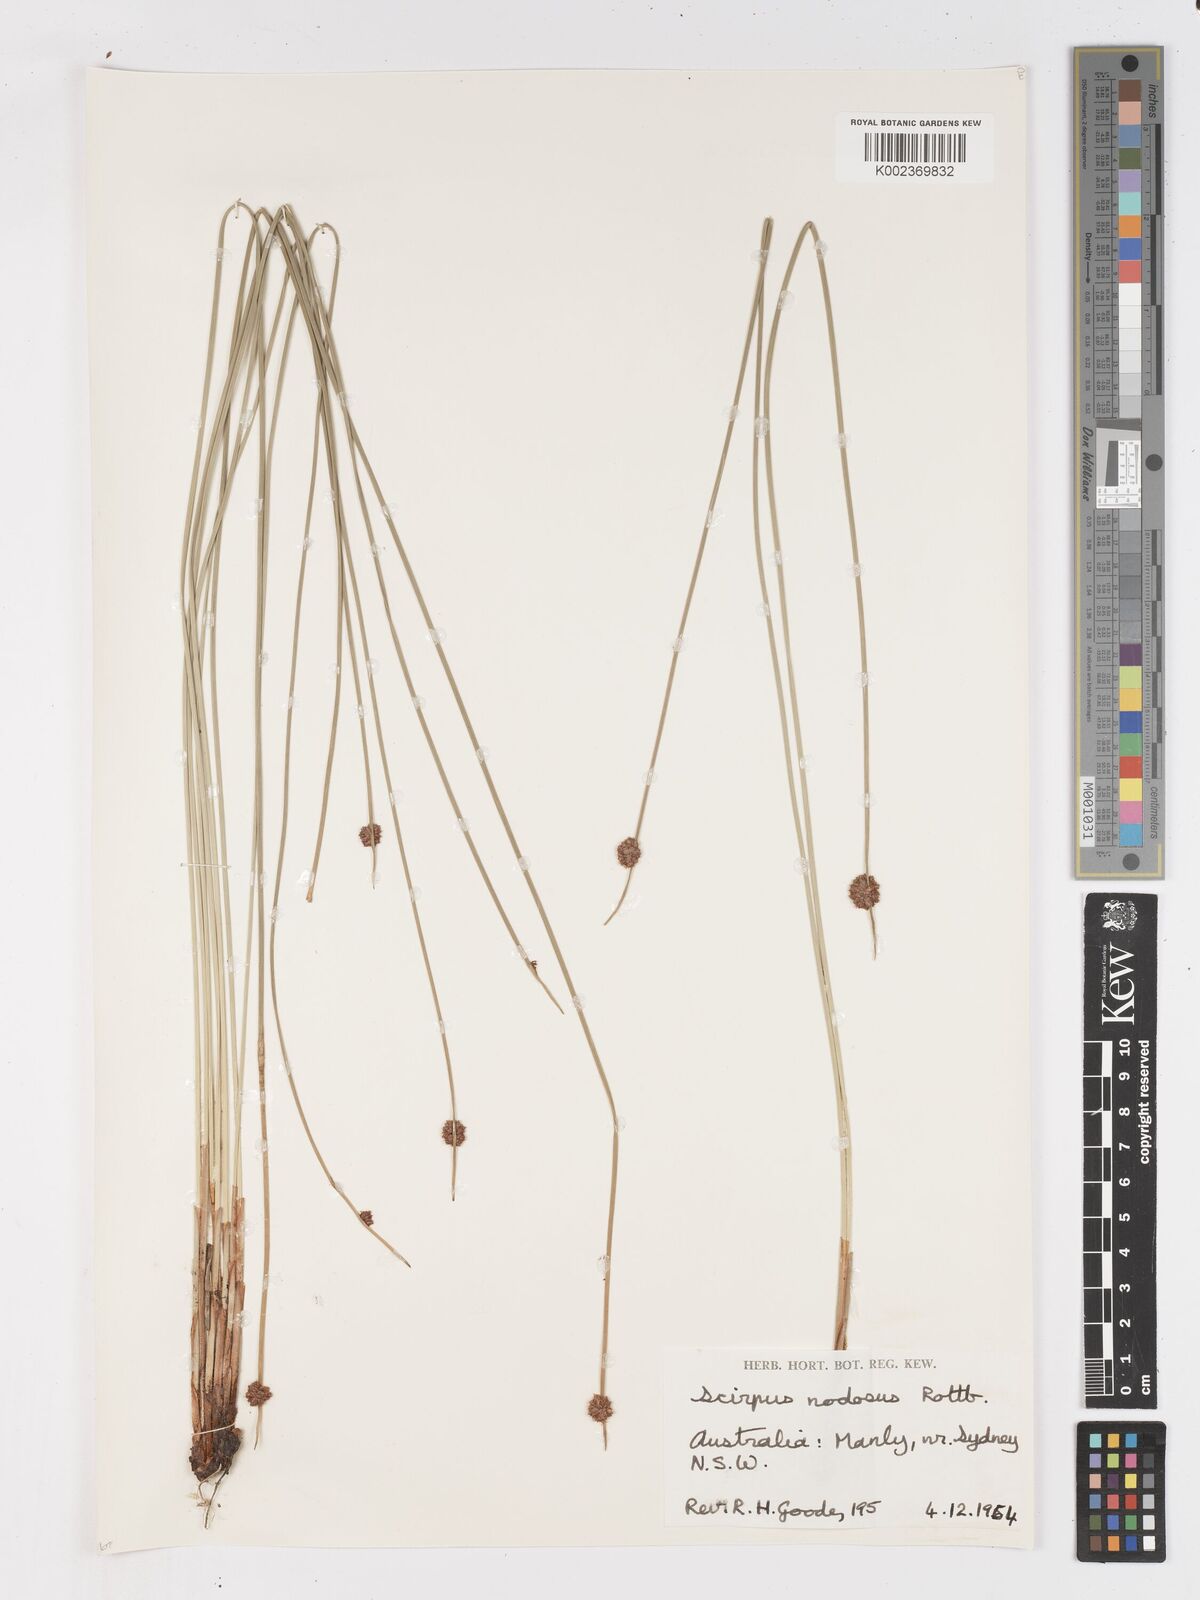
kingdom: Plantae
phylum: Tracheophyta
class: Liliopsida
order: Poales
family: Cyperaceae
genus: Ficinia
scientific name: Ficinia nodosa
